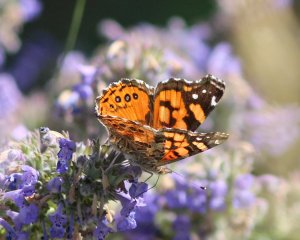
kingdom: Animalia
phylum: Arthropoda
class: Insecta
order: Lepidoptera
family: Nymphalidae
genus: Vanessa
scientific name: Vanessa annabella
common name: West Coast Lady
